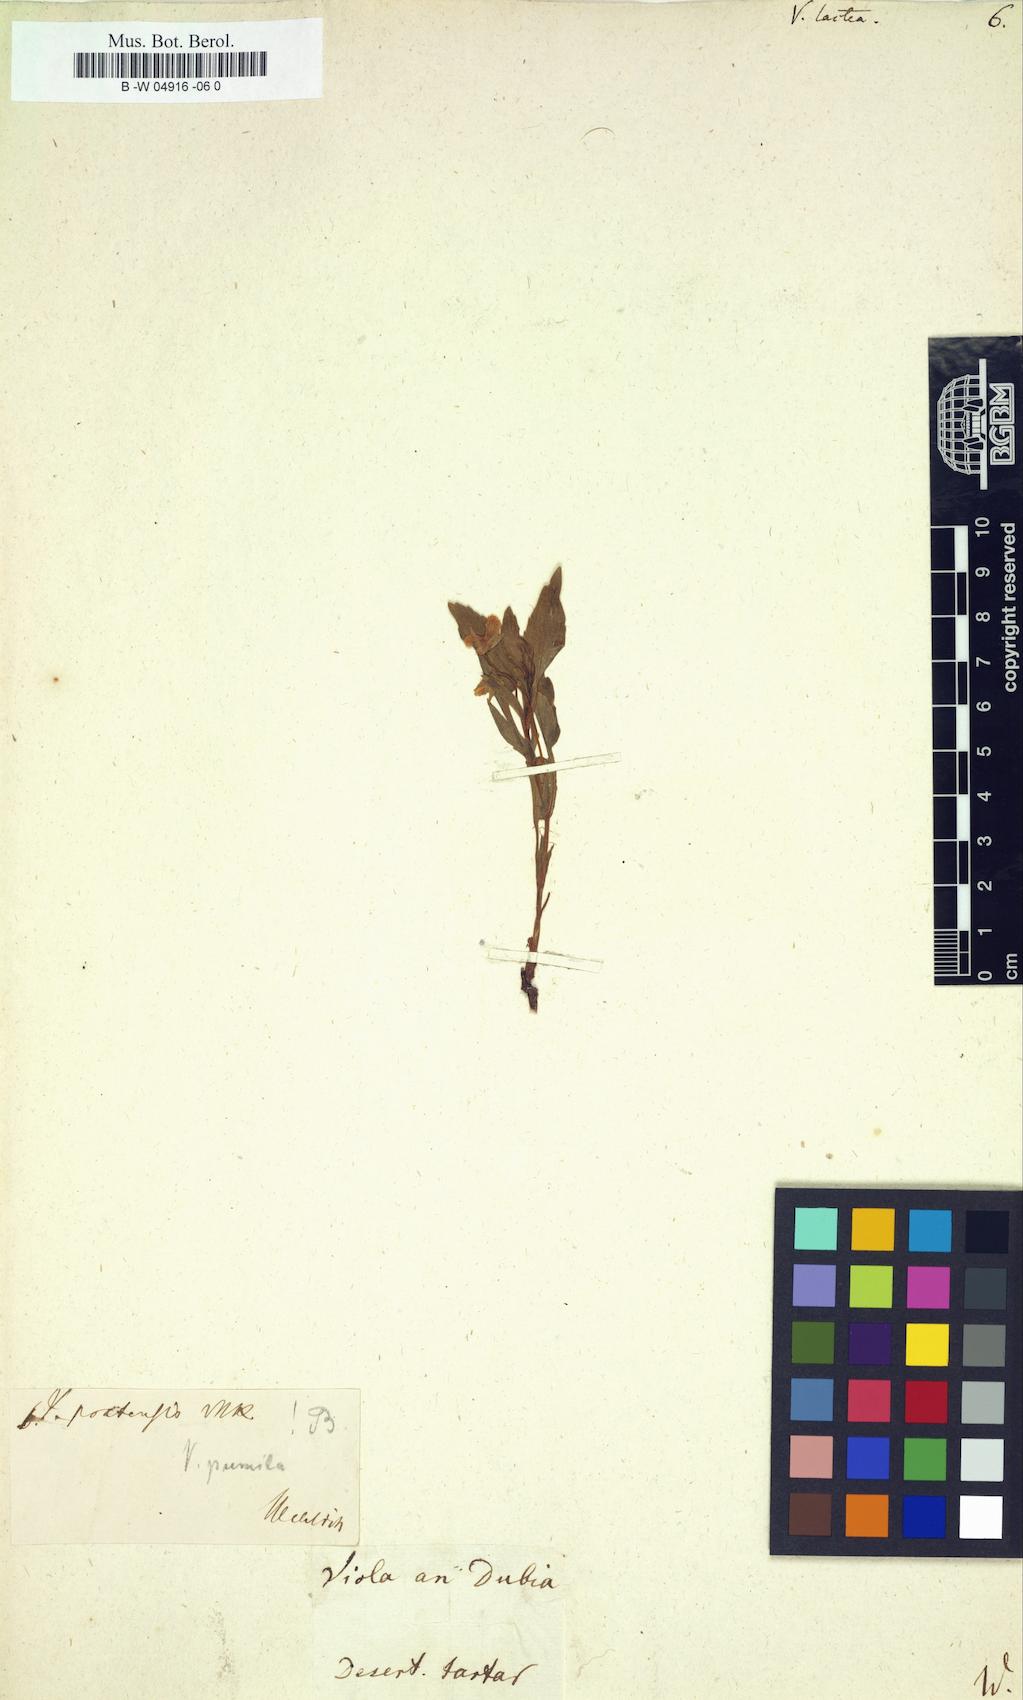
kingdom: Plantae
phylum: Tracheophyta
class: Magnoliopsida
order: Malpighiales
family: Violaceae
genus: Viola
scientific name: Viola lactea
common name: Pale dog-violet
